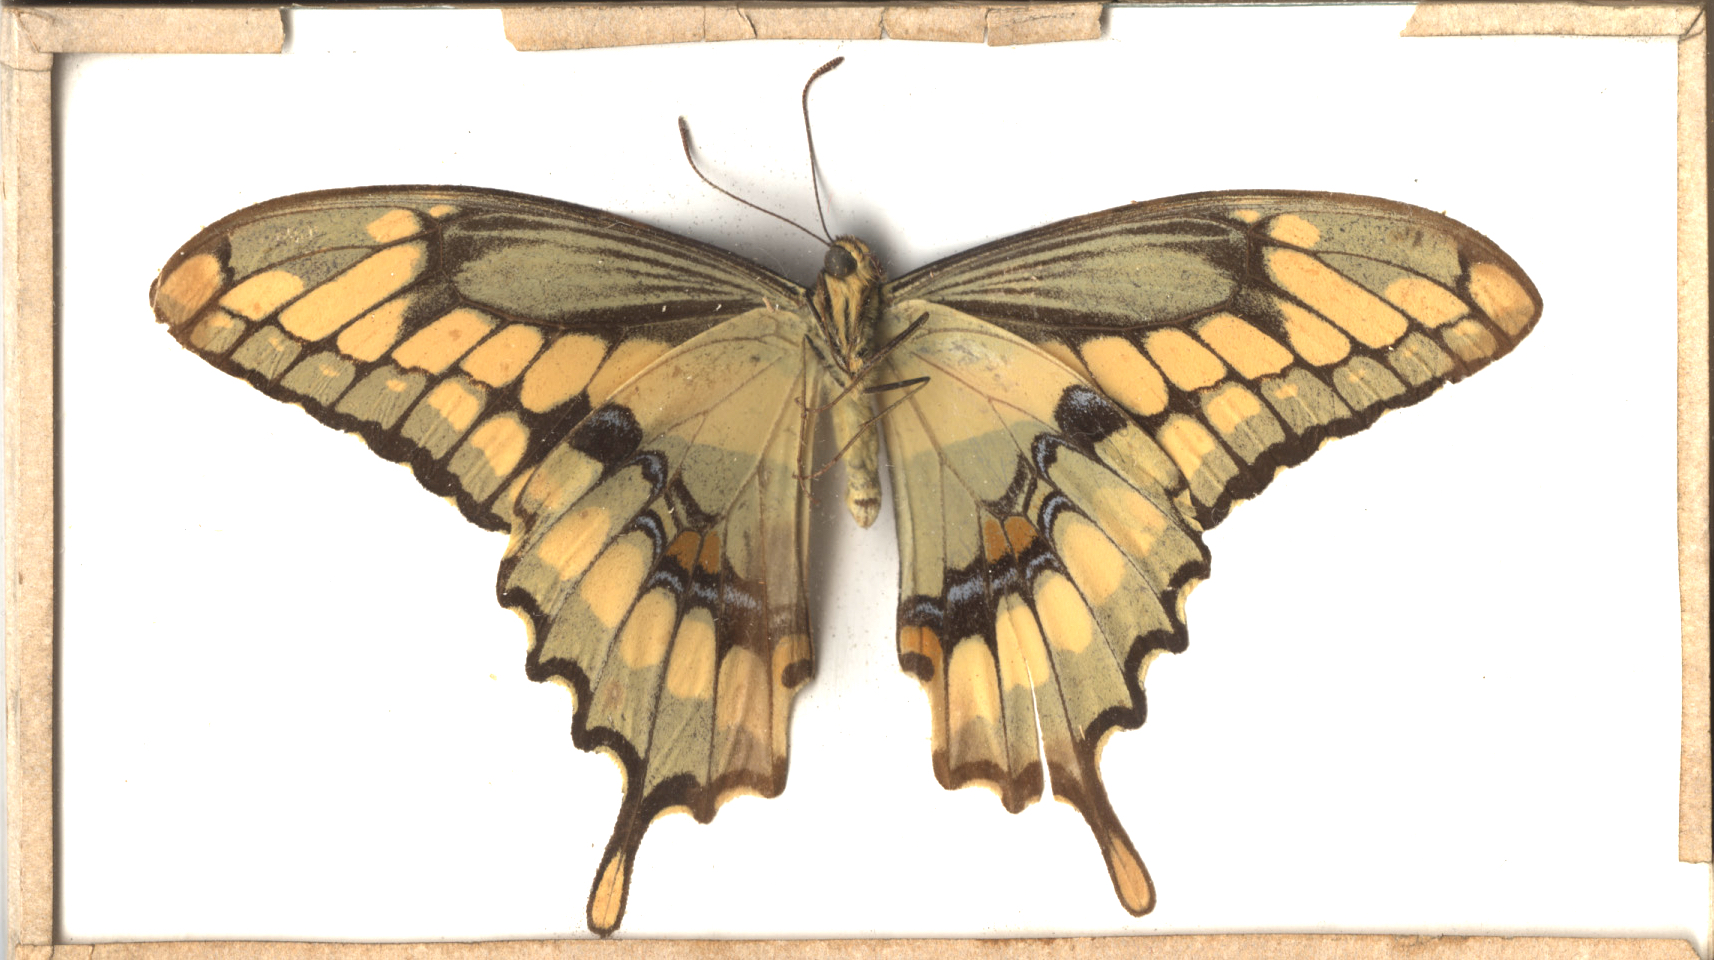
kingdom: Animalia
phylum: Arthropoda
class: Insecta
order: Lepidoptera
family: Papilionidae
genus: Papilio
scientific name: Papilio cresphontes
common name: Giant Swallowtail
